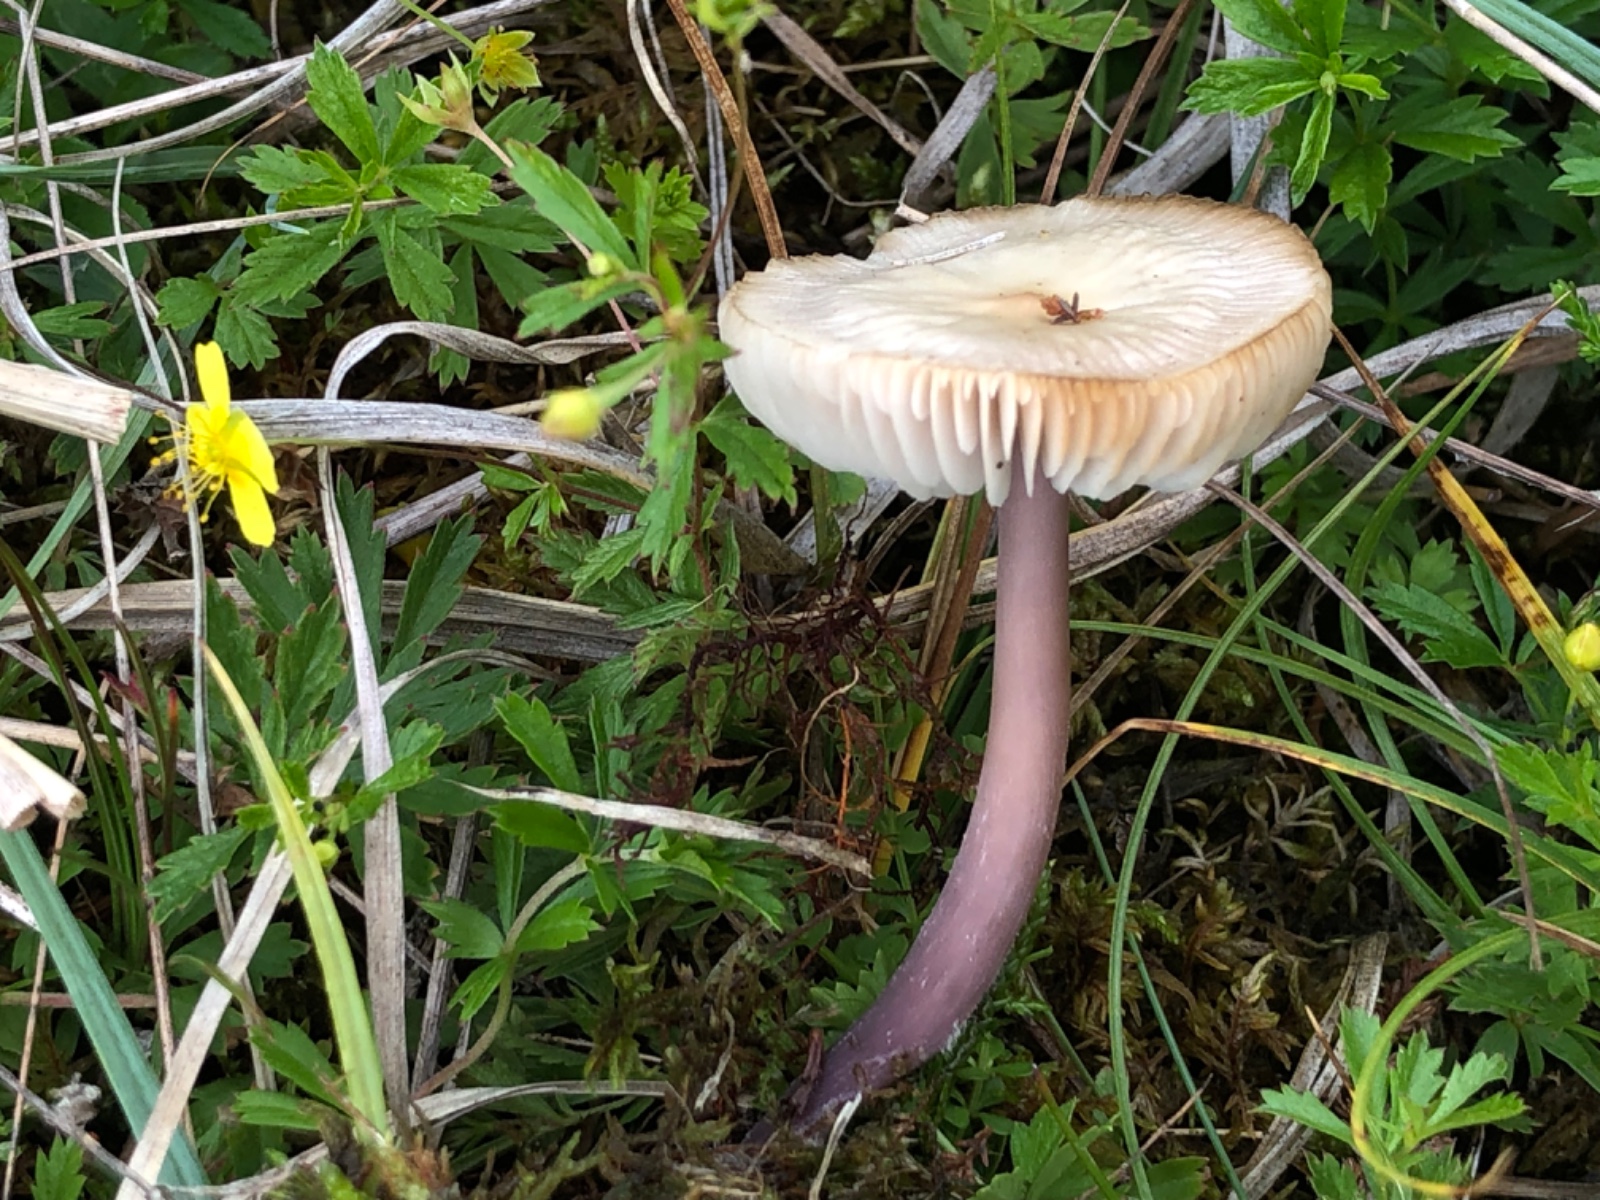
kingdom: Fungi
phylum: Basidiomycota
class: Agaricomycetes
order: Agaricales
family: Mycenaceae
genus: Mycena
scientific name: Mycena luteovariegata
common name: lillagul huesvamp
